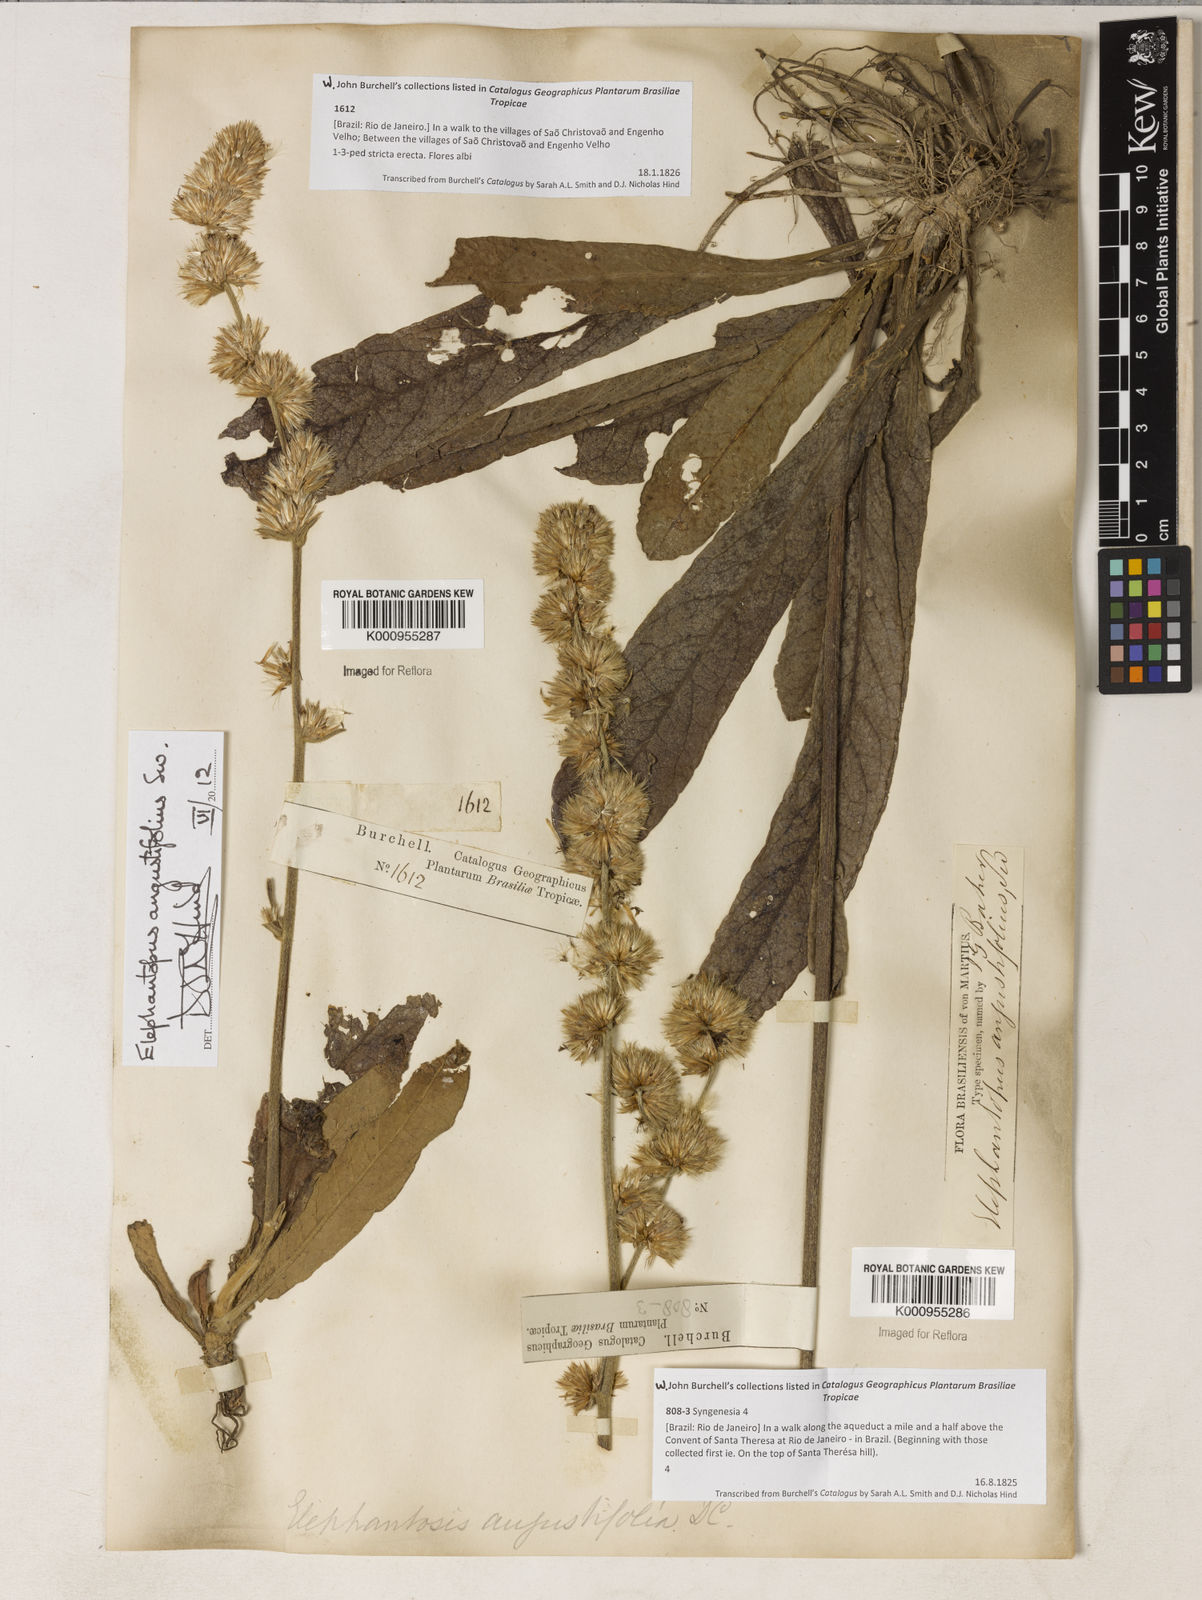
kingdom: Plantae
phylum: Tracheophyta
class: Magnoliopsida
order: Asterales
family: Asteraceae
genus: Orthopappus
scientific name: Orthopappus angustifolius
